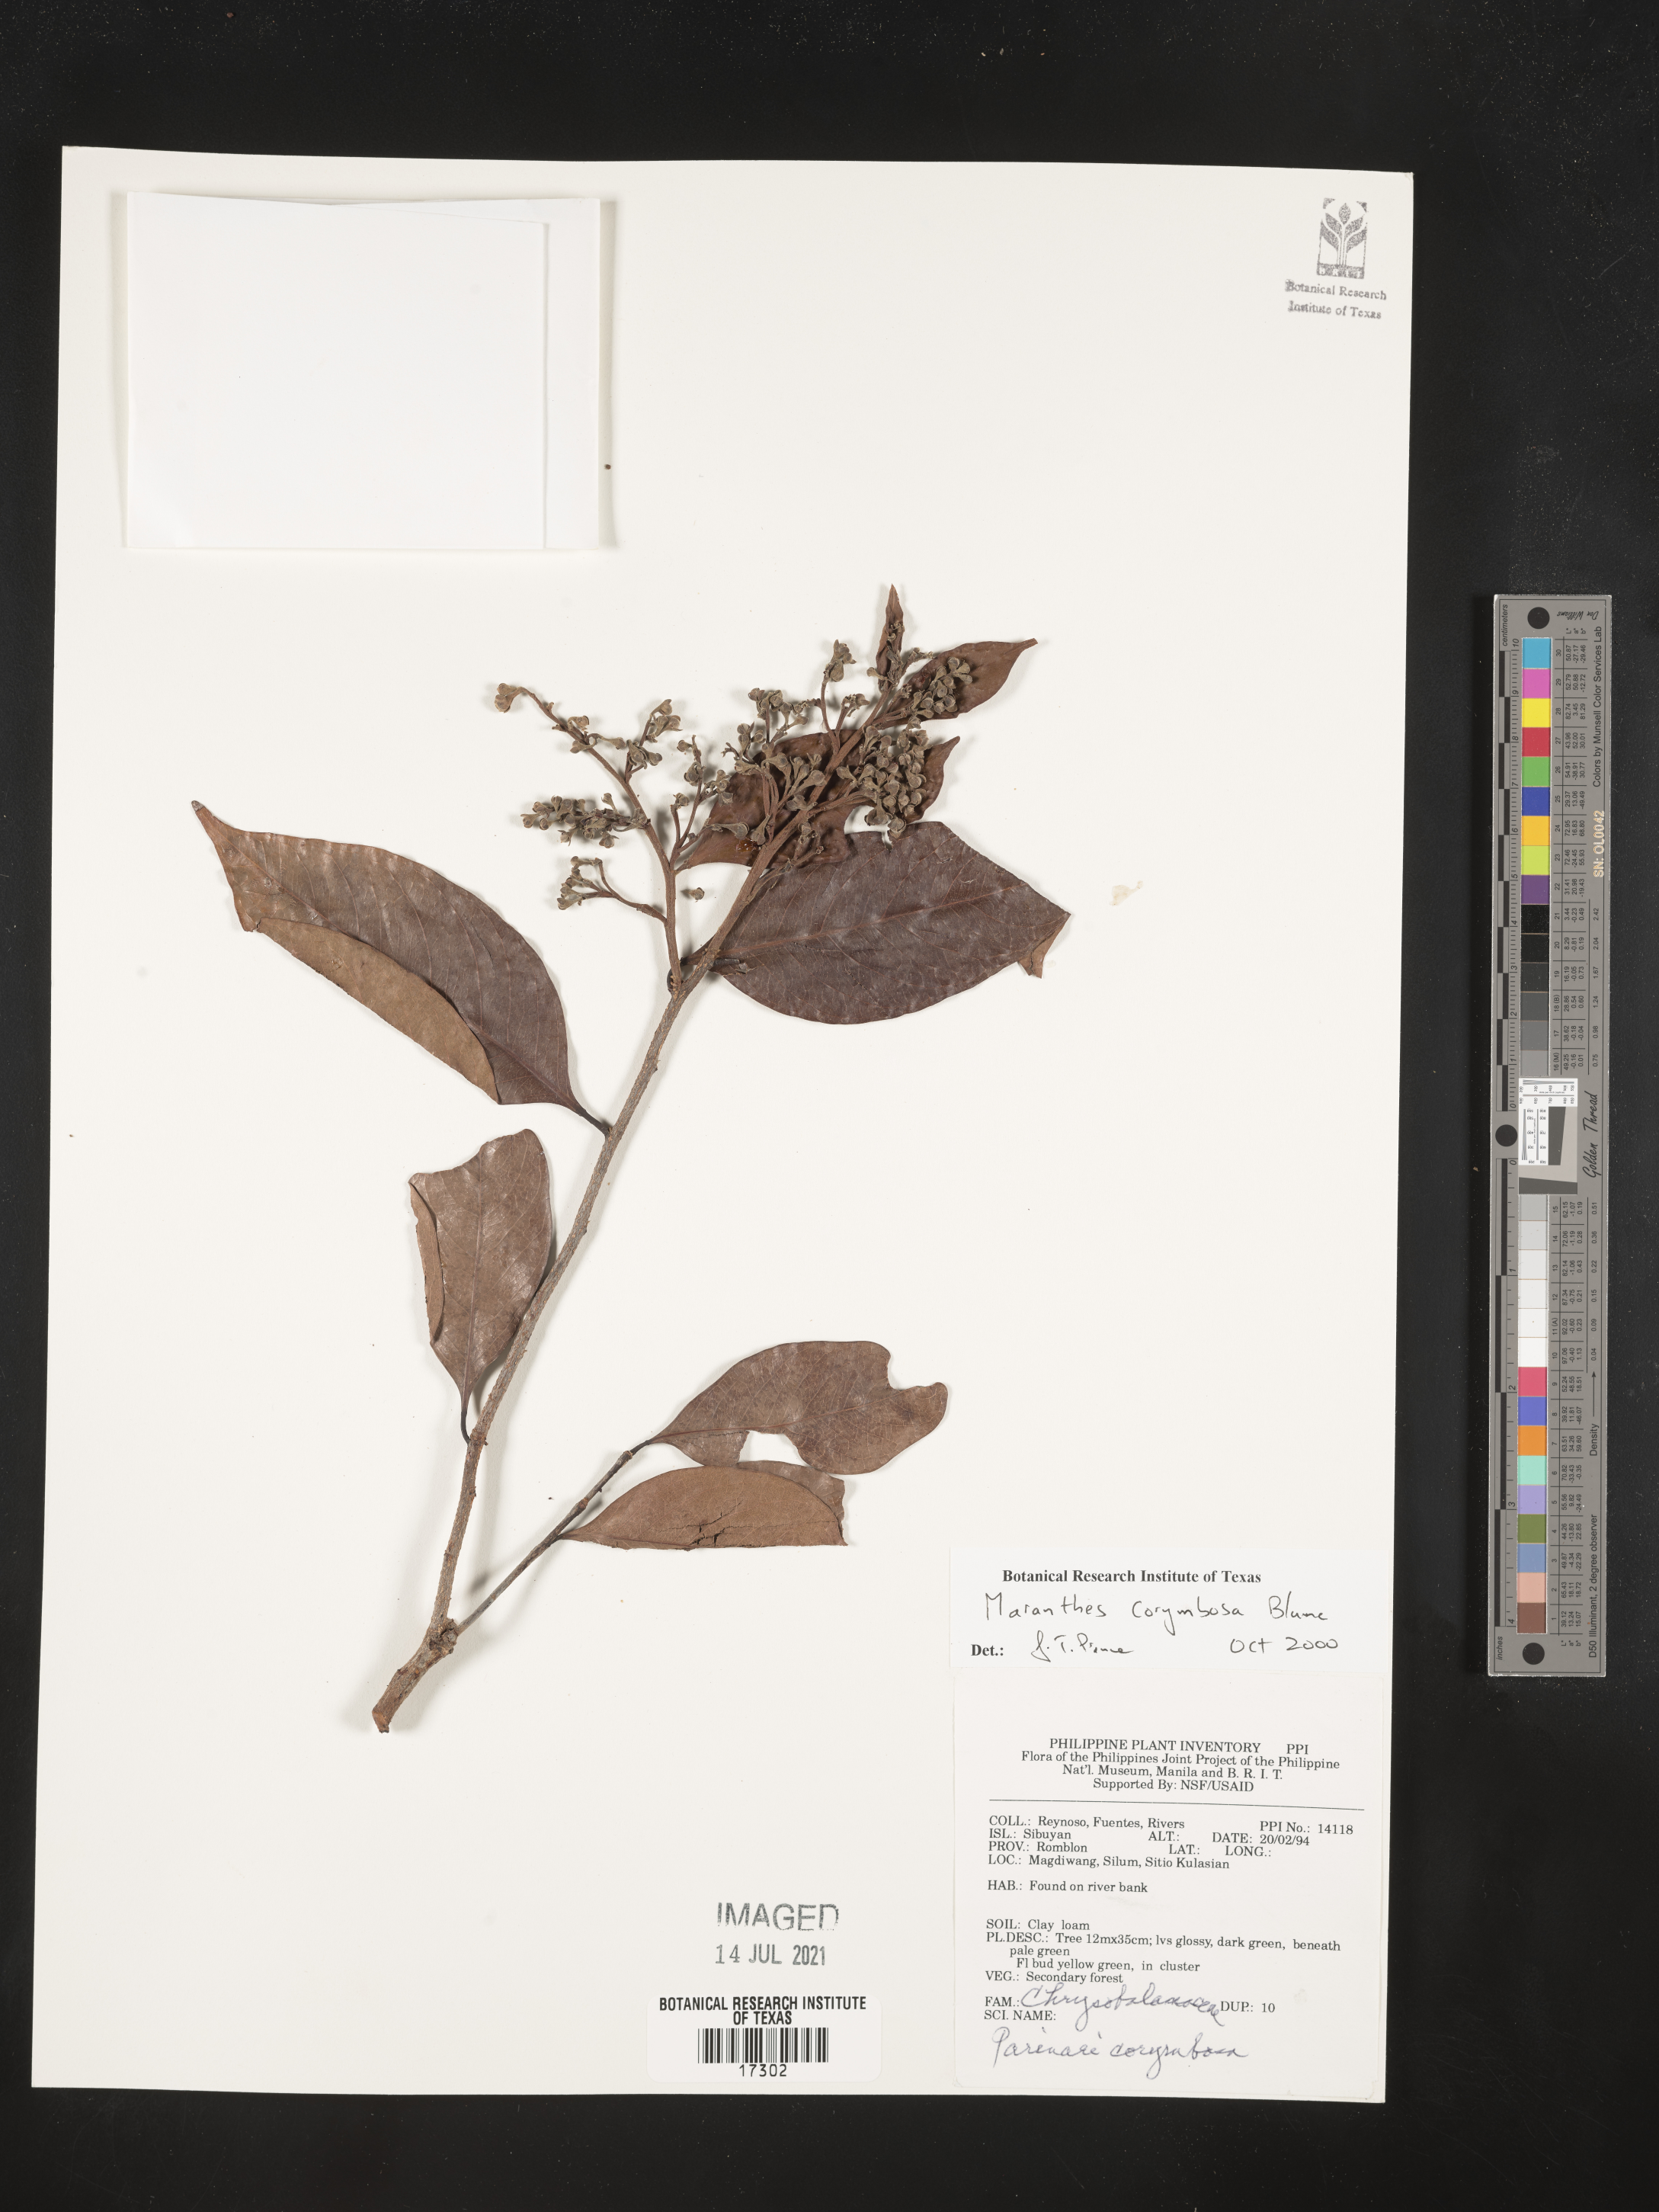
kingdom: Plantae
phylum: Tracheophyta
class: Magnoliopsida
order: Malpighiales
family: Chrysobalanaceae
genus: Maranthes
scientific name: Maranthes corymbosa
